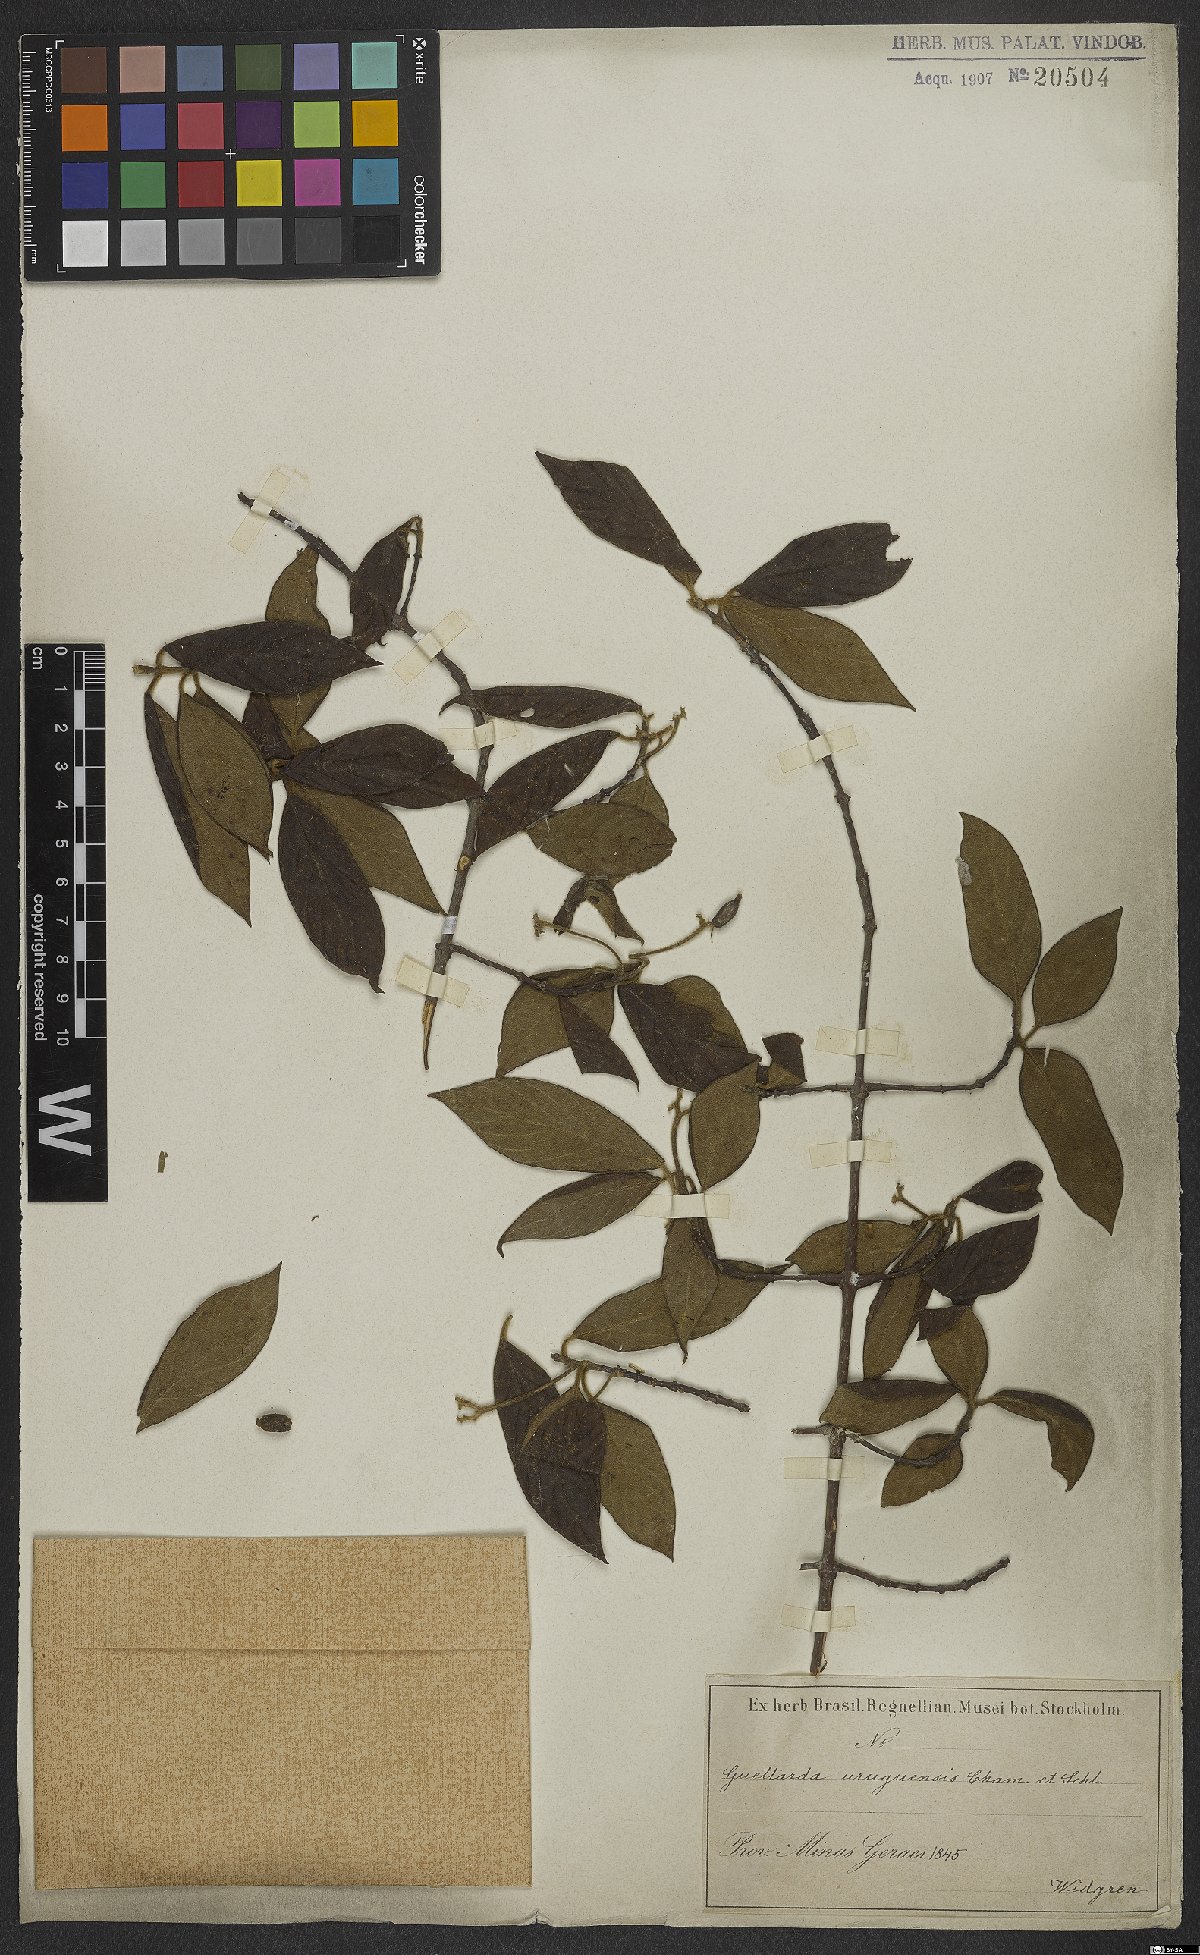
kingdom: Plantae
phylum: Tracheophyta
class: Magnoliopsida
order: Gentianales
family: Rubiaceae
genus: Guettarda
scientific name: Guettarda uruguensis
